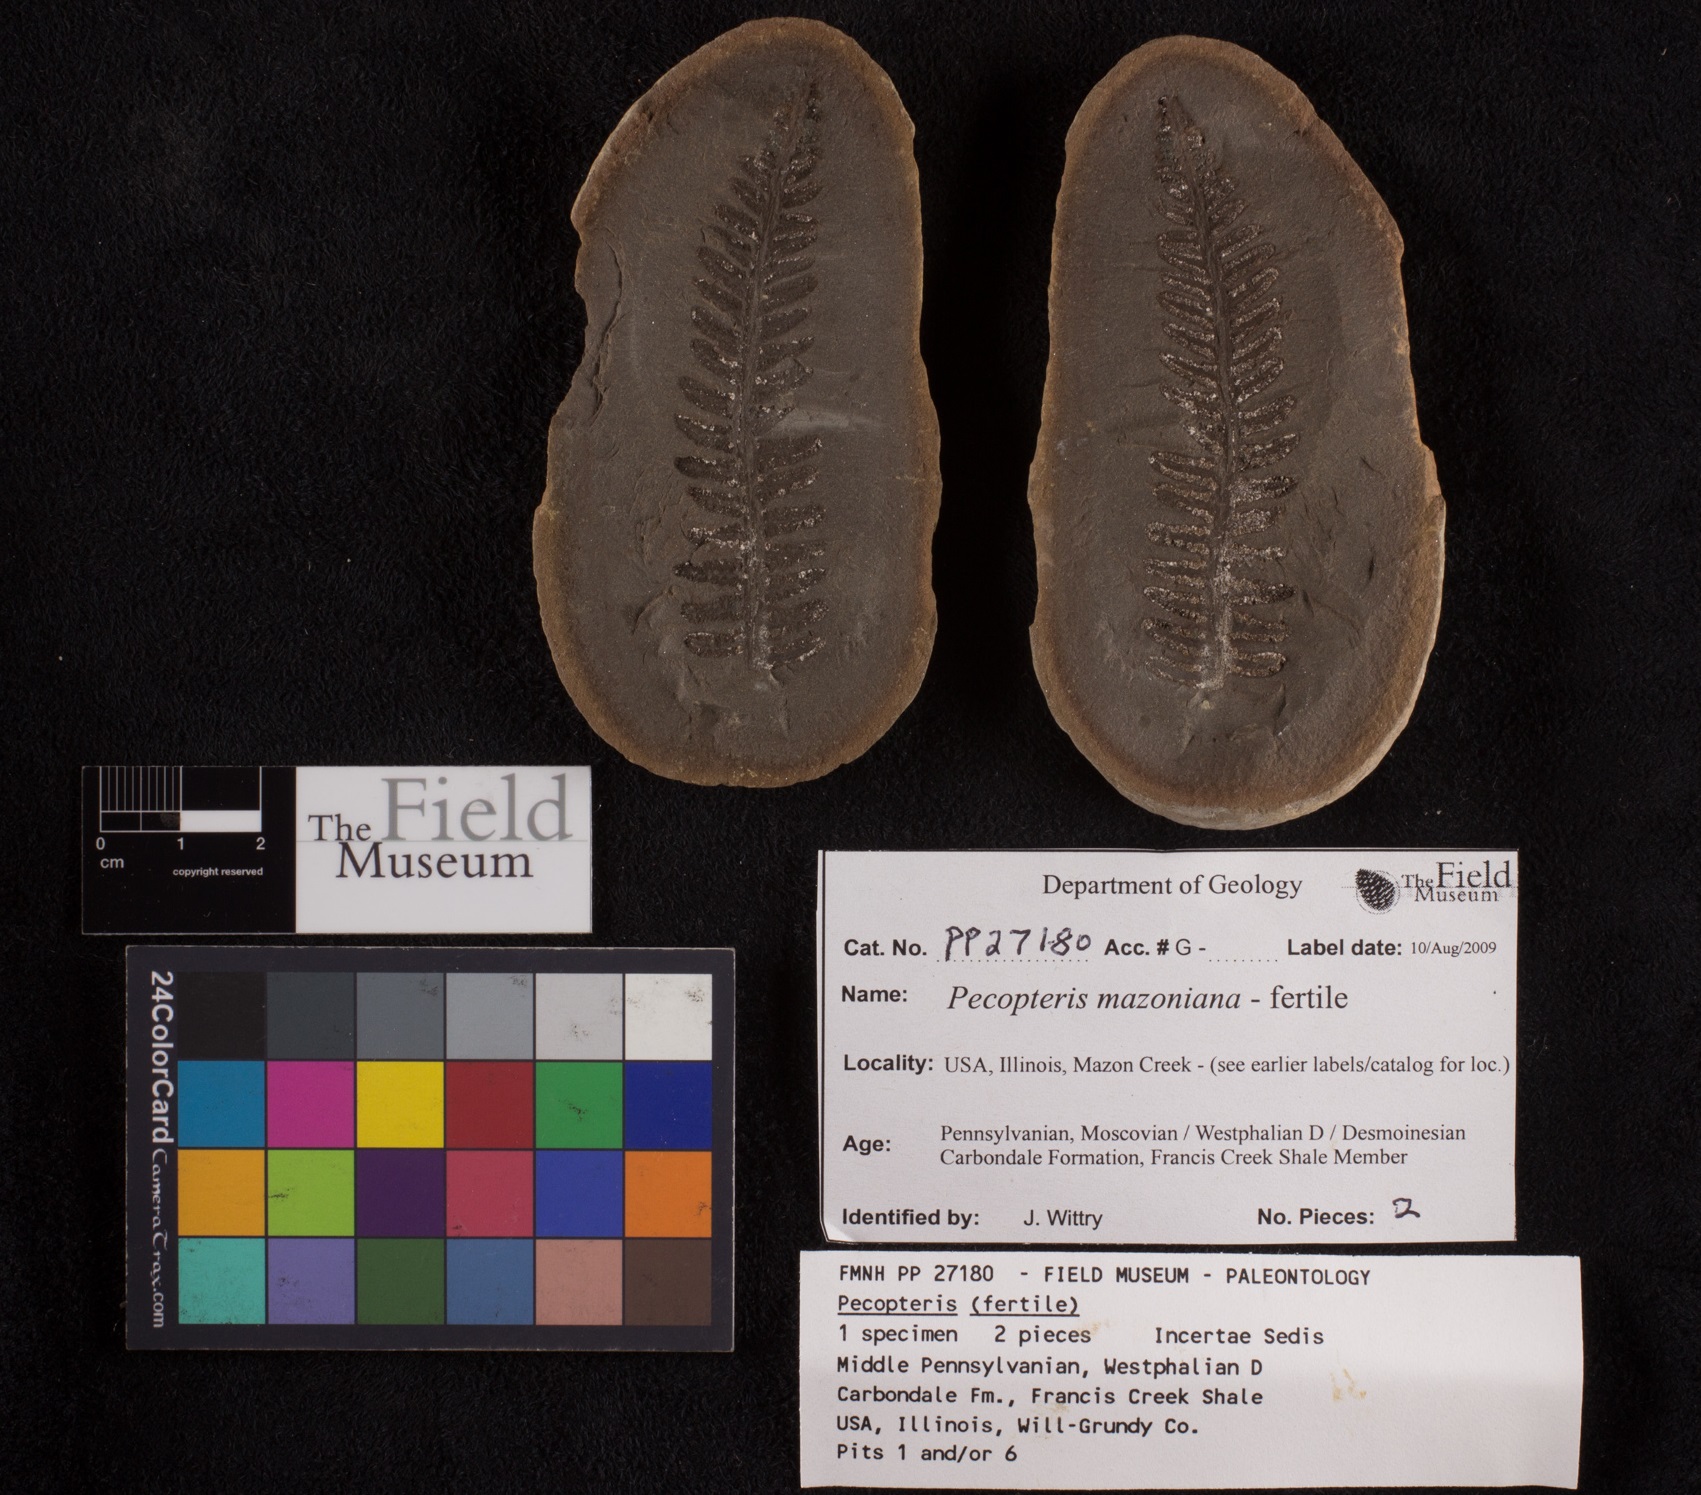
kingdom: Plantae
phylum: Tracheophyta
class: Polypodiopsida
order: Marattiales
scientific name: Marattiales
